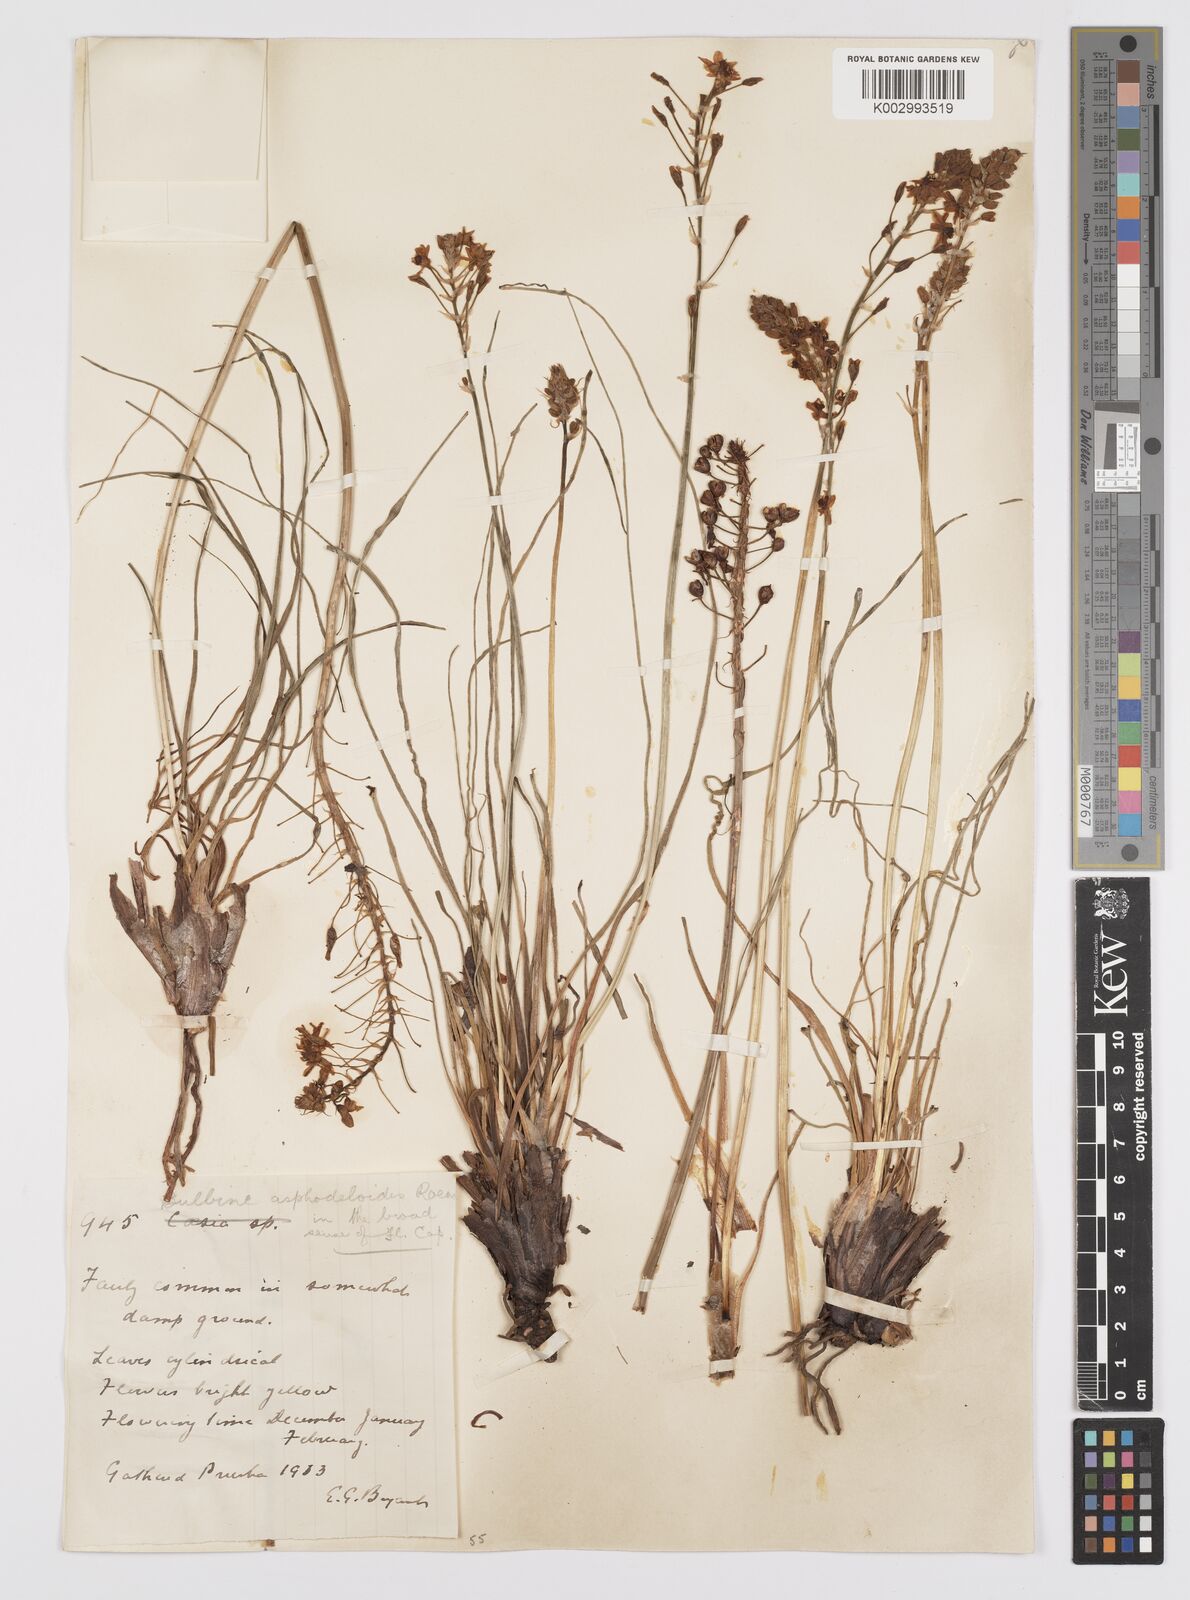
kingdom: Plantae
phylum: Tracheophyta
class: Liliopsida
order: Asparagales
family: Asphodelaceae
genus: Bulbine
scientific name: Bulbine asphodeloides
